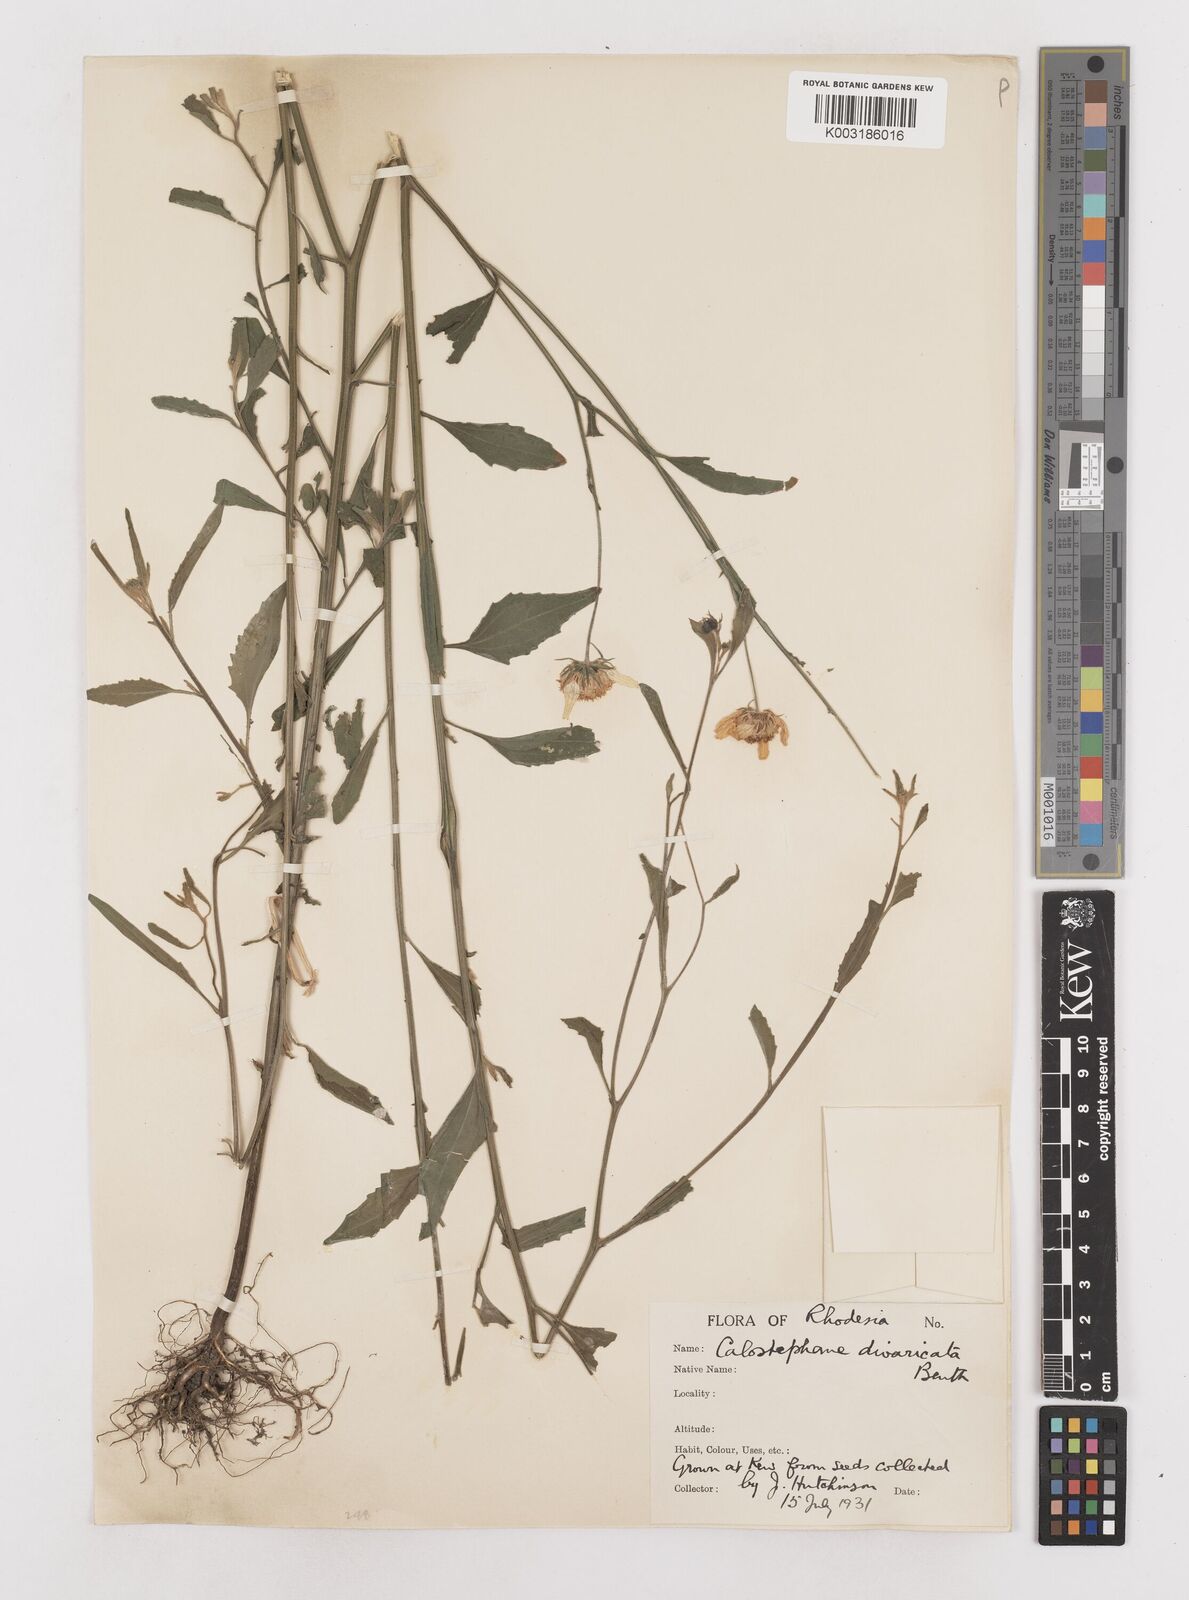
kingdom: Plantae
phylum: Tracheophyta
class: Magnoliopsida
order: Asterales
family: Asteraceae
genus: Calostephane
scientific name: Calostephane divaricata
